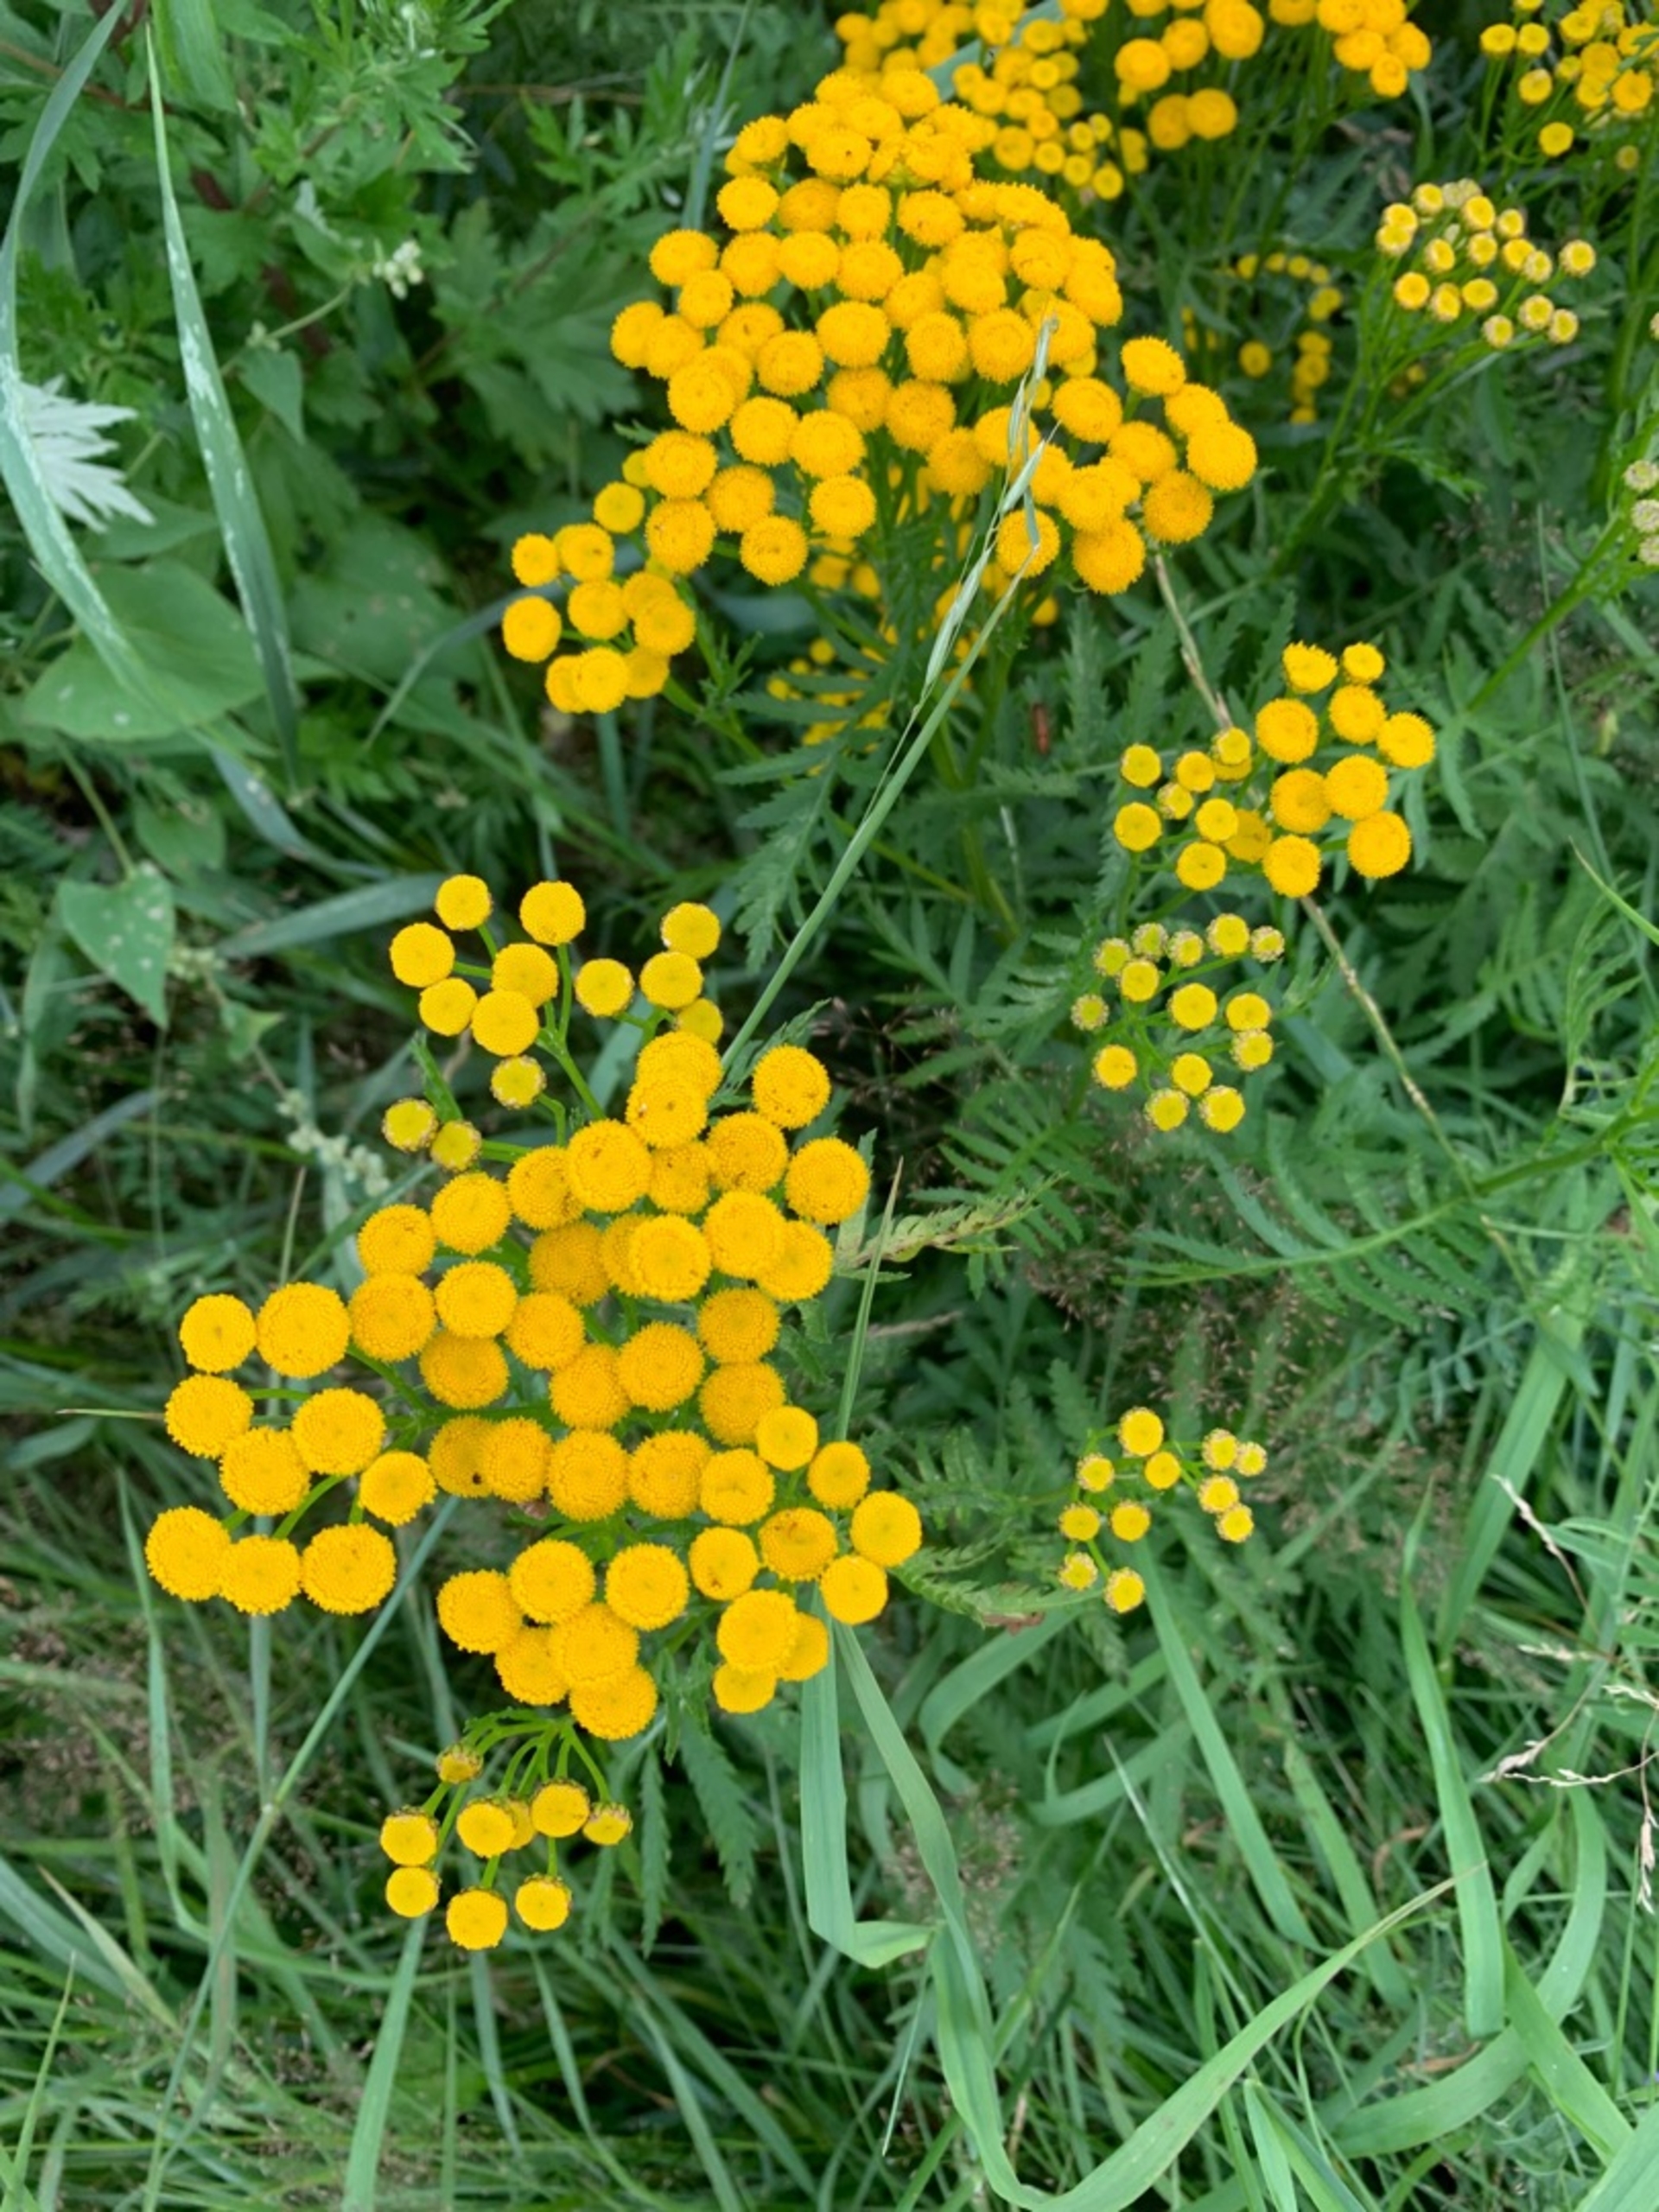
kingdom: Plantae
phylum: Tracheophyta
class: Magnoliopsida
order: Asterales
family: Asteraceae
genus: Tanacetum
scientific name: Tanacetum vulgare
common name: Rejnfan
